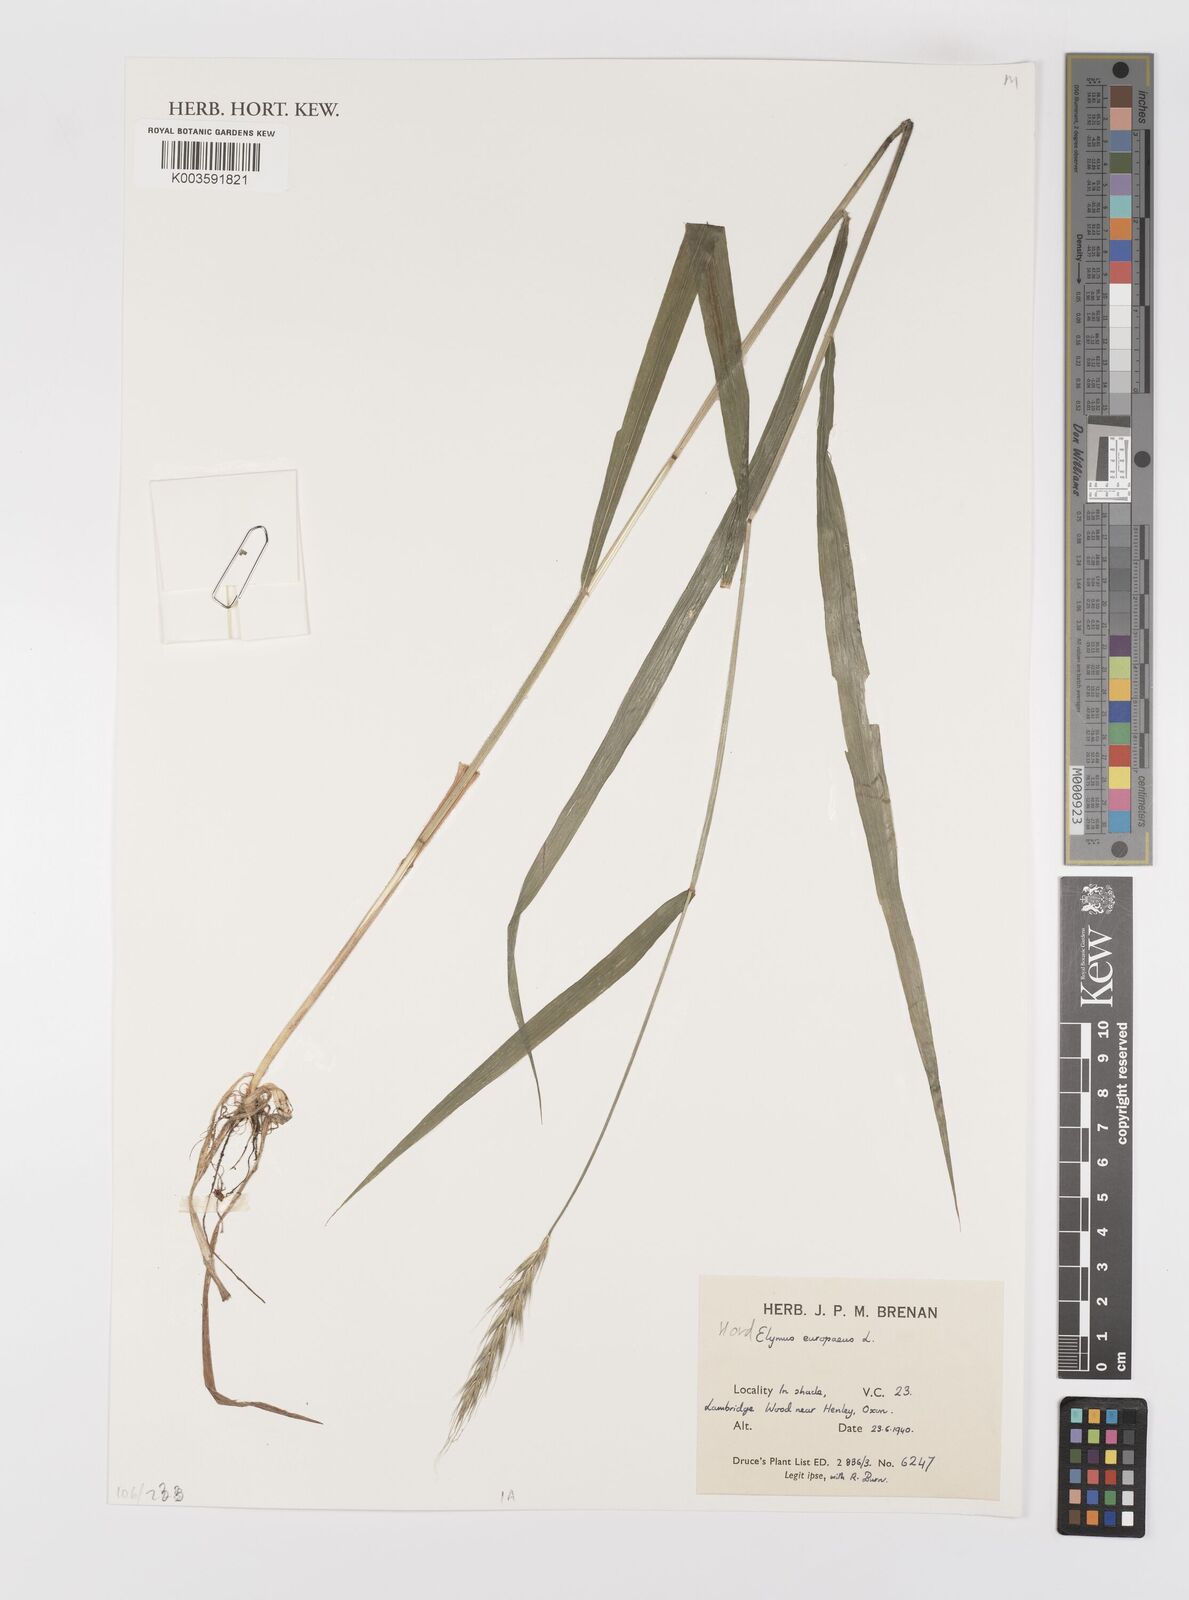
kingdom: Plantae
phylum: Tracheophyta
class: Liliopsida
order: Poales
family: Poaceae
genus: Hordelymus
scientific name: Hordelymus europaeus
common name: Wood-barley
